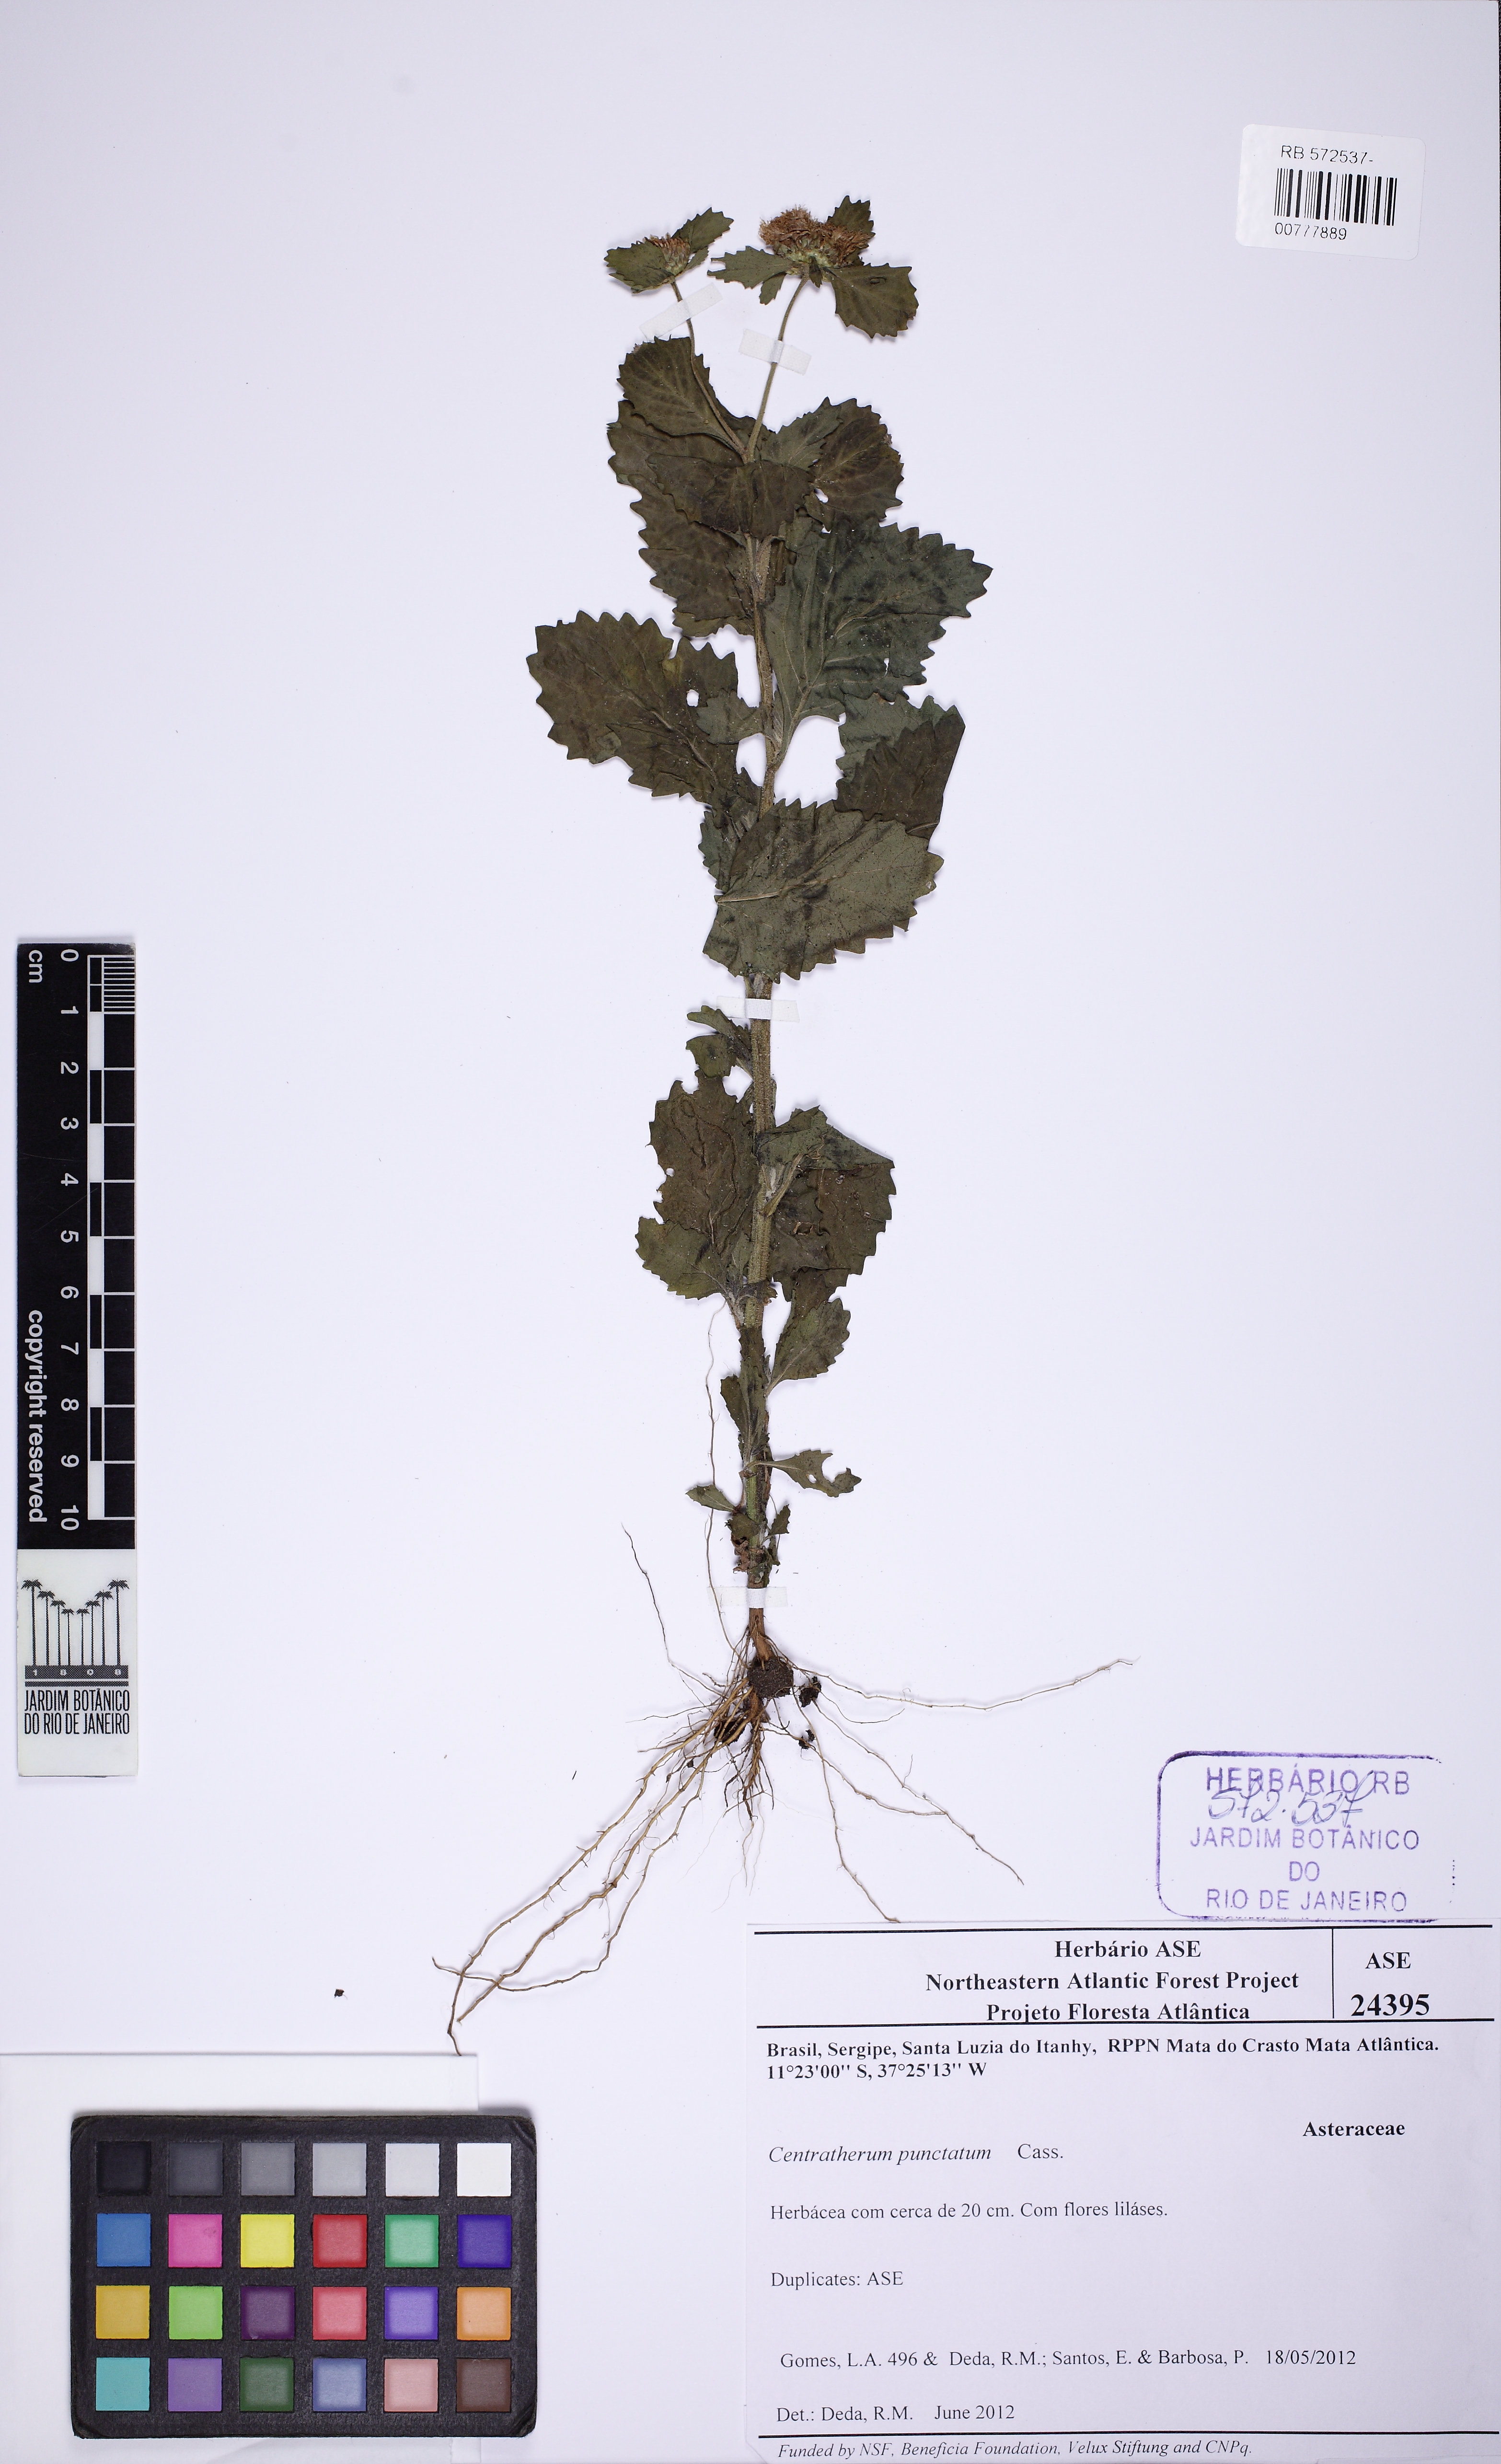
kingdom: Plantae
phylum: Tracheophyta
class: Magnoliopsida
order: Asterales
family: Asteraceae
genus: Centratherum
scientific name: Centratherum punctatum
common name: Larkdaisy
